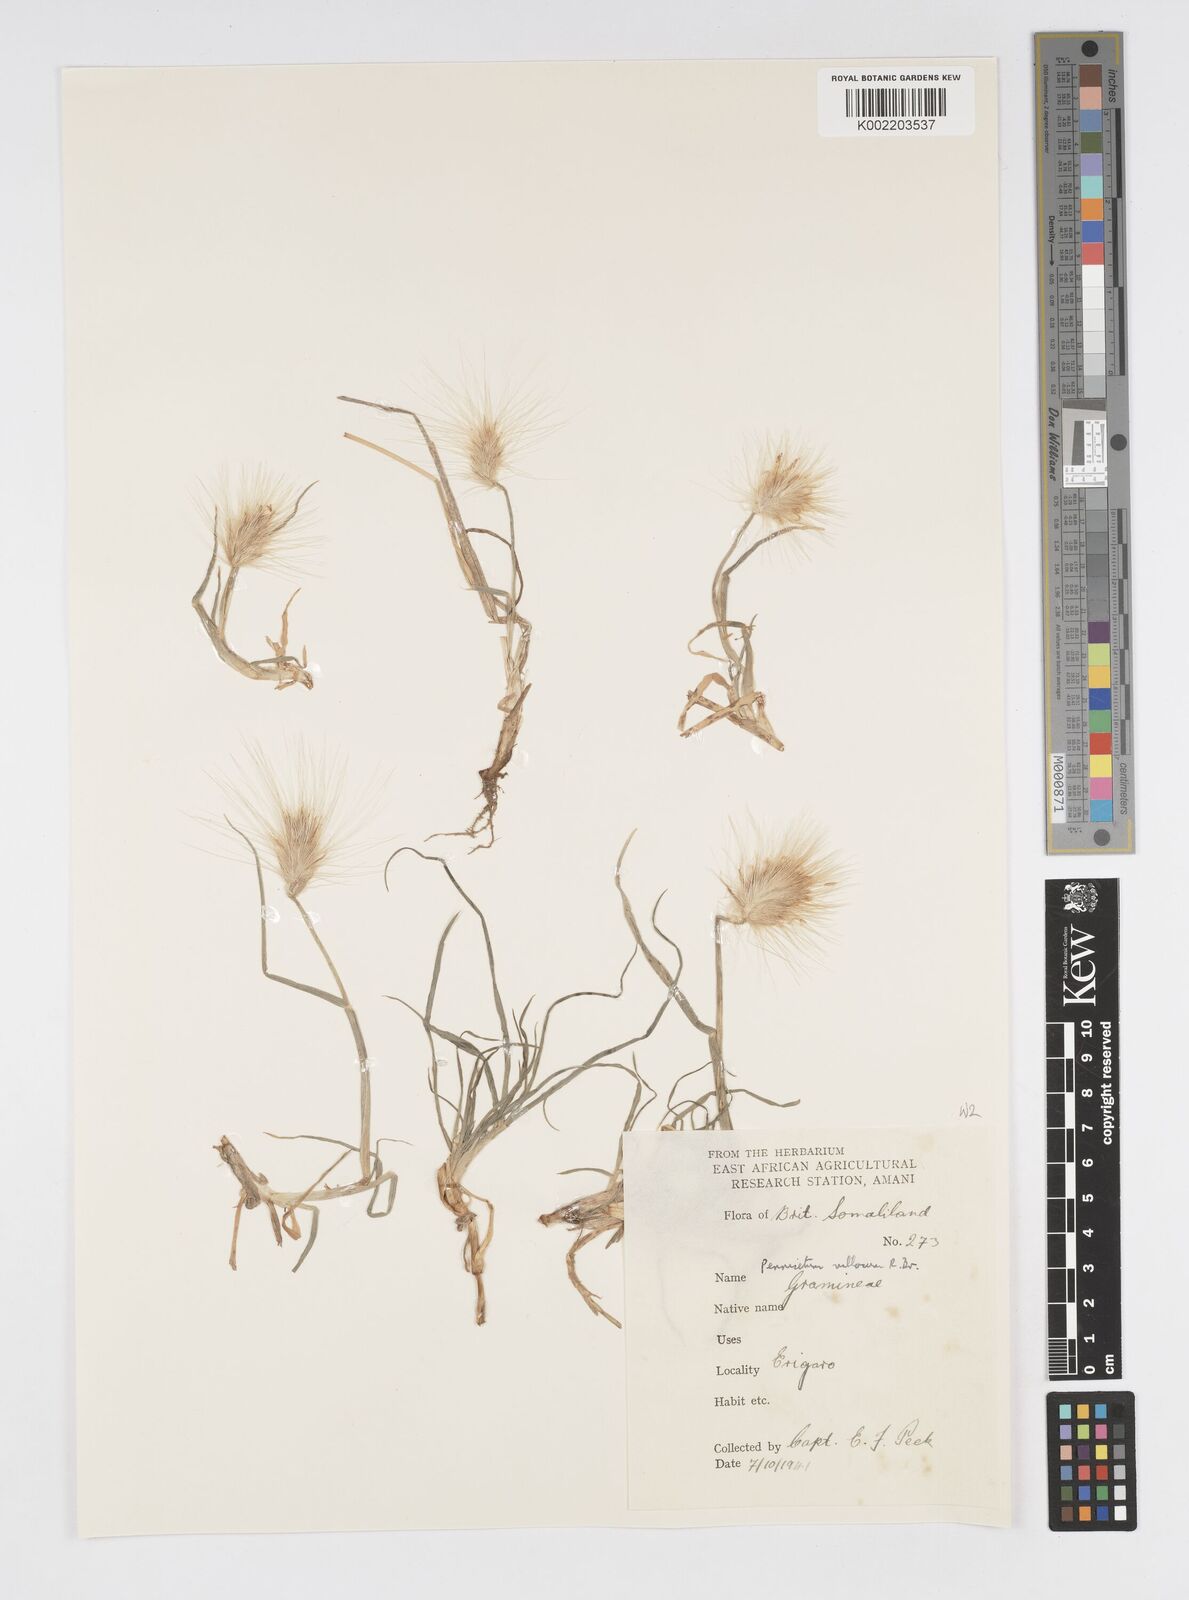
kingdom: Plantae
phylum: Tracheophyta
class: Liliopsida
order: Poales
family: Poaceae
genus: Cenchrus
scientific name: Cenchrus longisetus
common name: Feathertop
